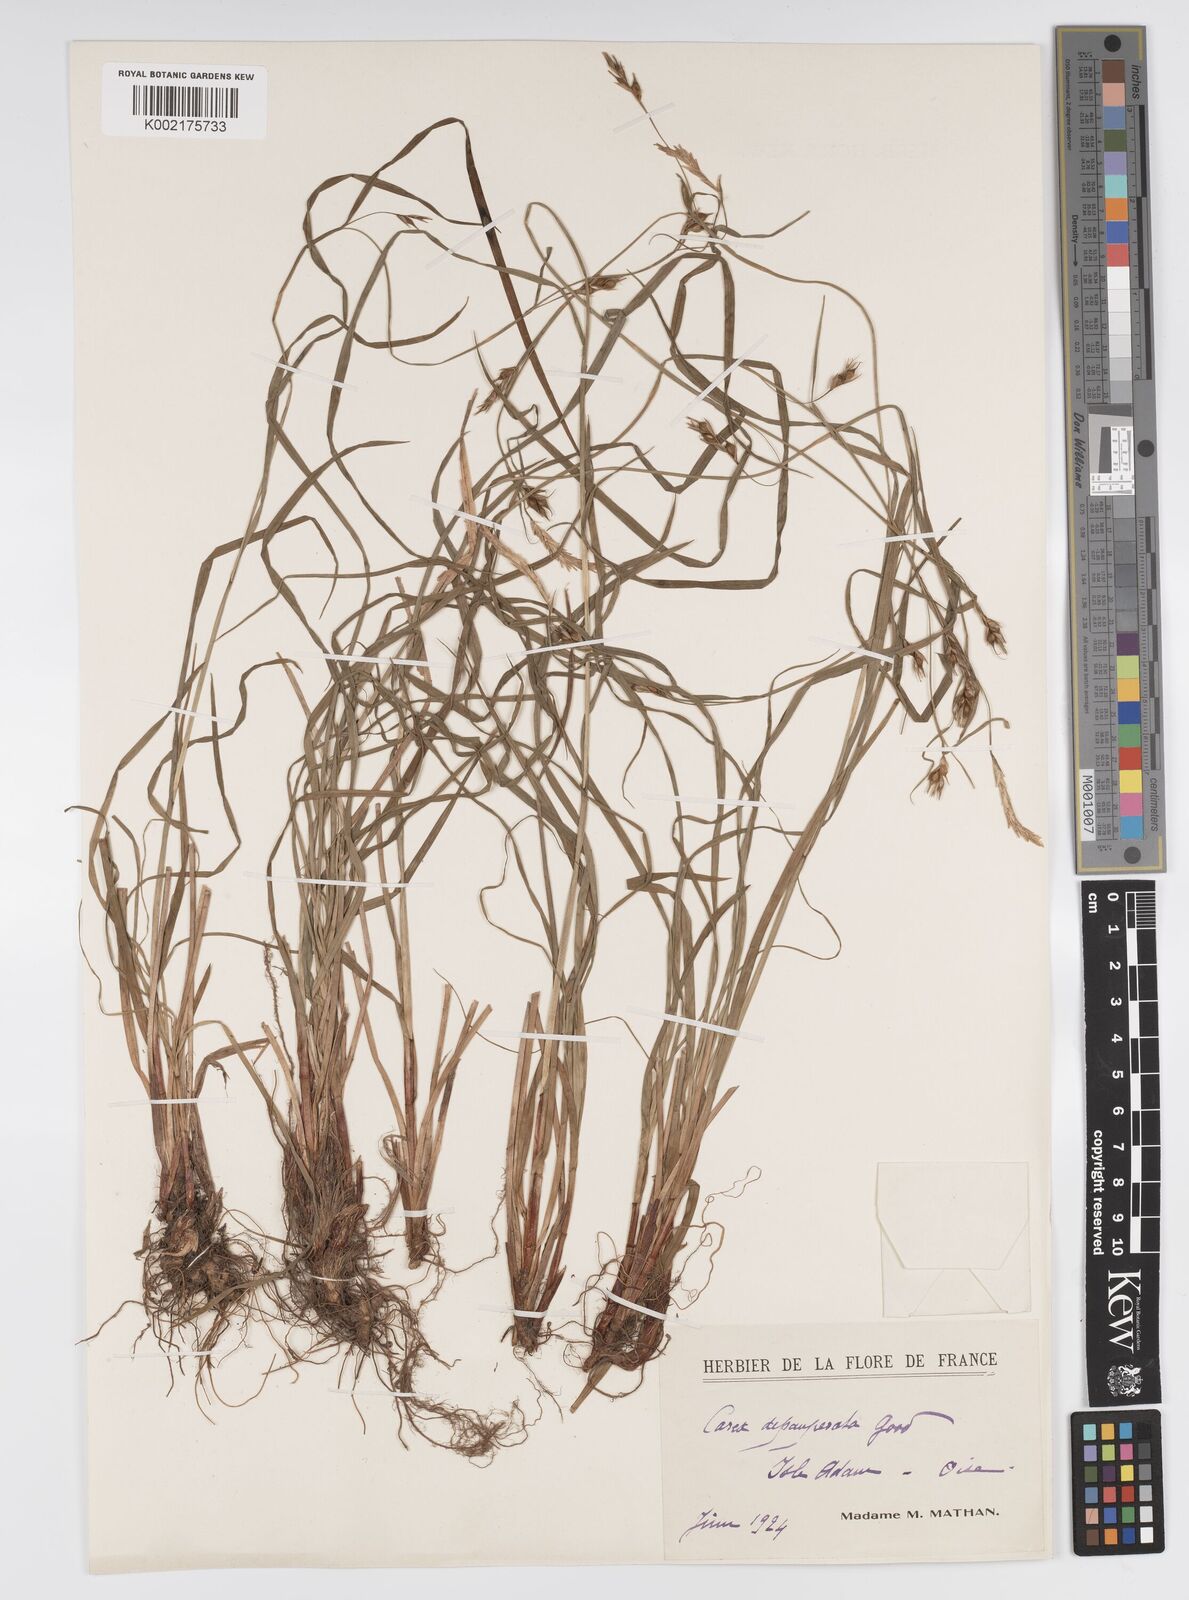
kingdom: Plantae
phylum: Tracheophyta
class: Liliopsida
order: Poales
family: Cyperaceae
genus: Carex
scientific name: Carex
